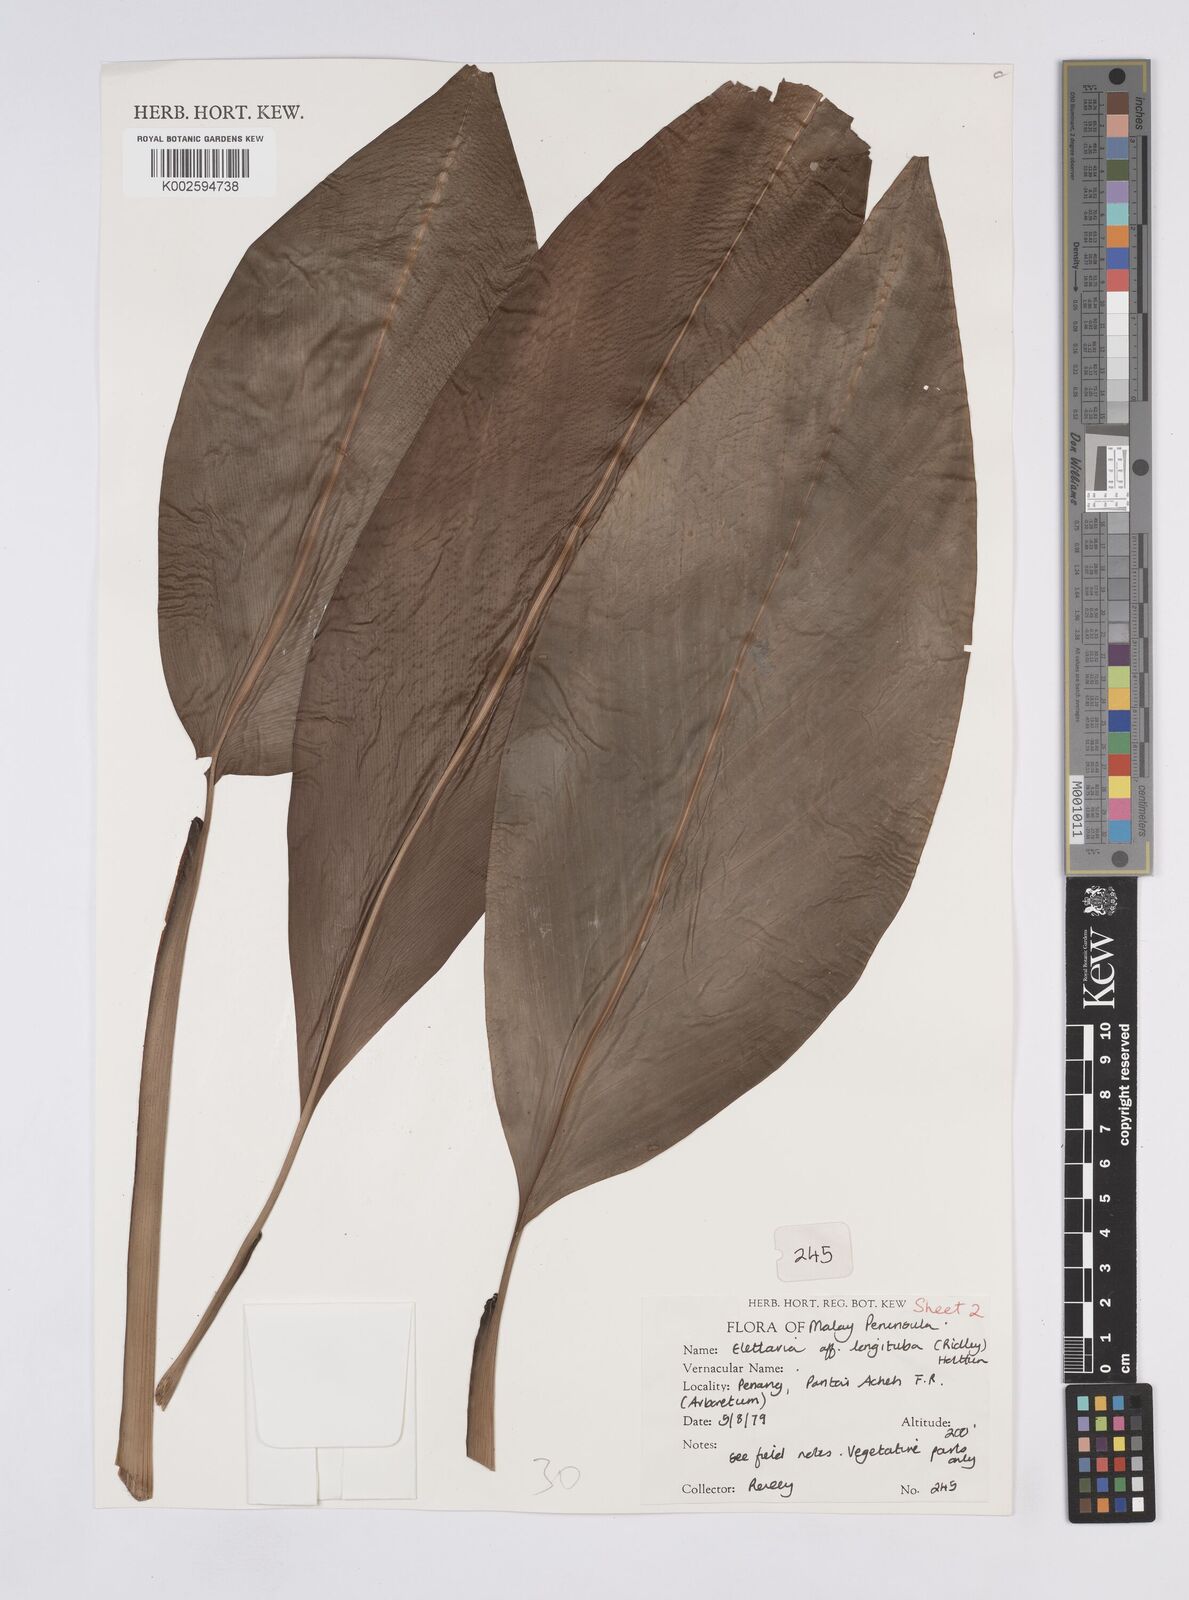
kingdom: Plantae
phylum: Tracheophyta
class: Liliopsida
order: Zingiberales
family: Zingiberaceae
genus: Sulettaria
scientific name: Sulettaria longituba
